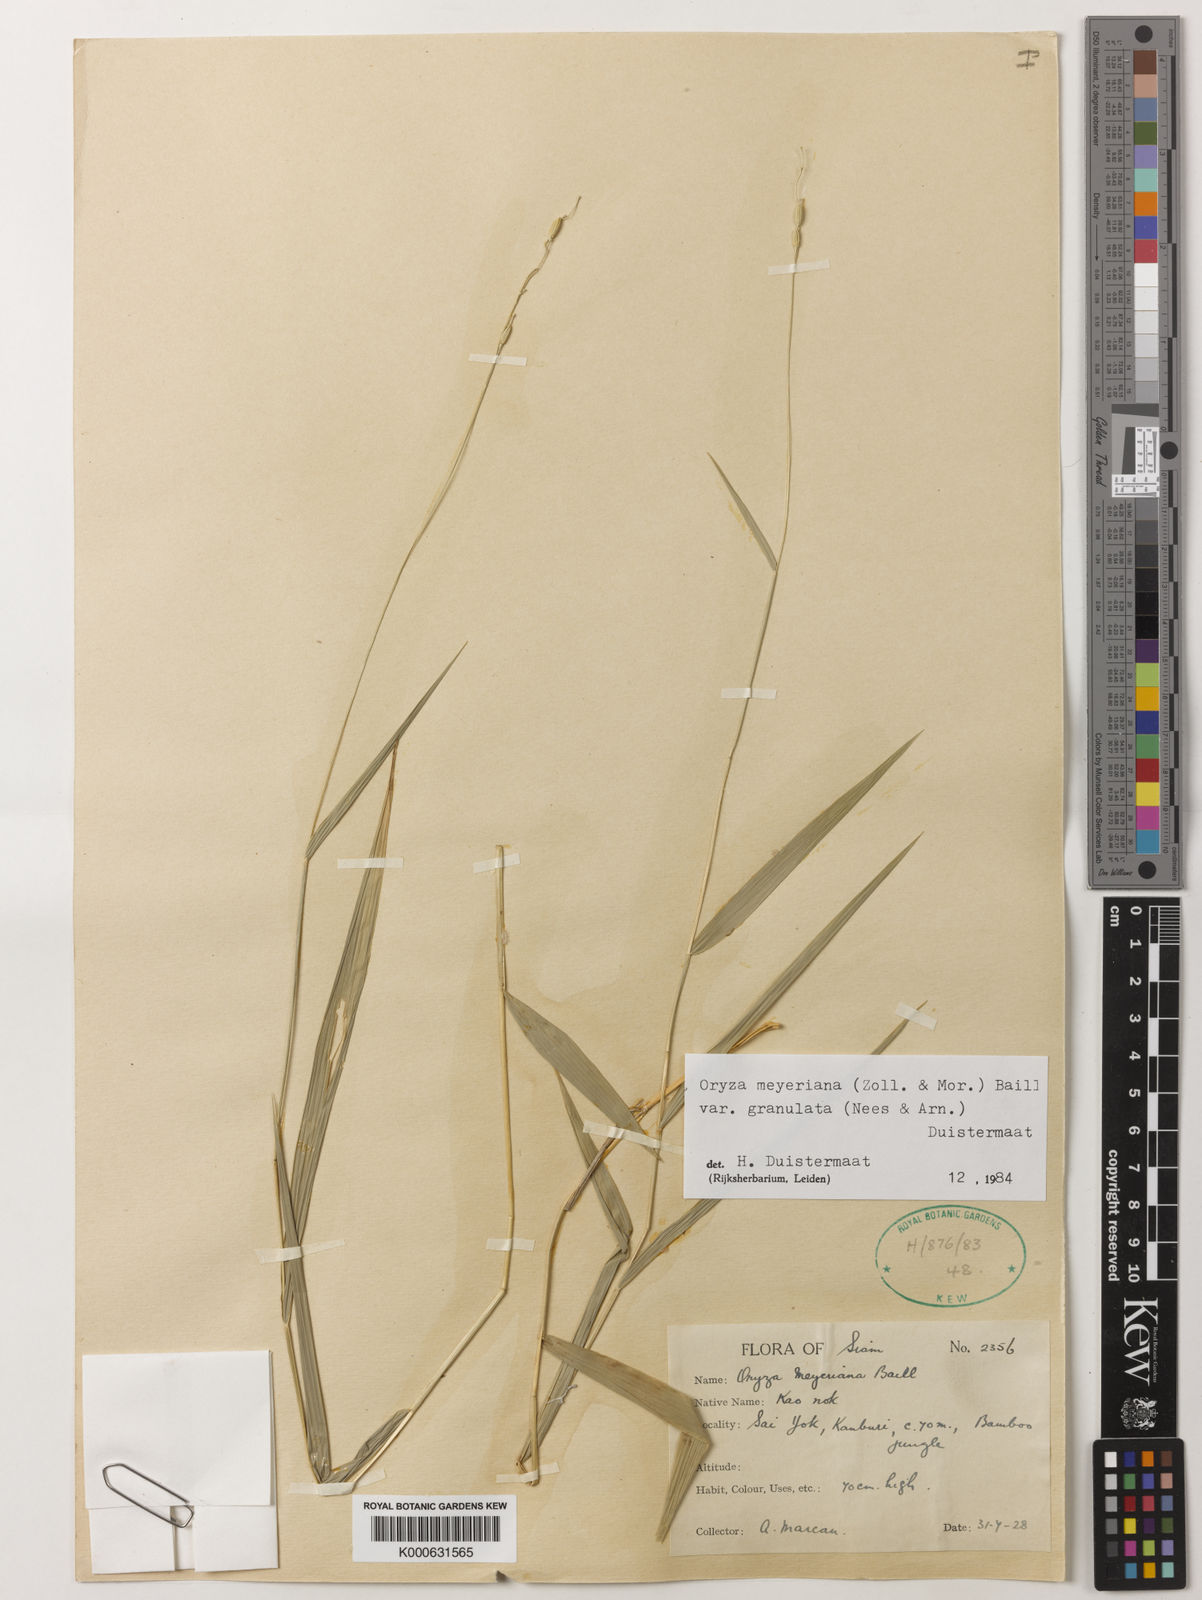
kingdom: Plantae
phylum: Tracheophyta
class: Liliopsida
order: Poales
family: Poaceae
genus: Oryza
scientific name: Oryza meyeriana
